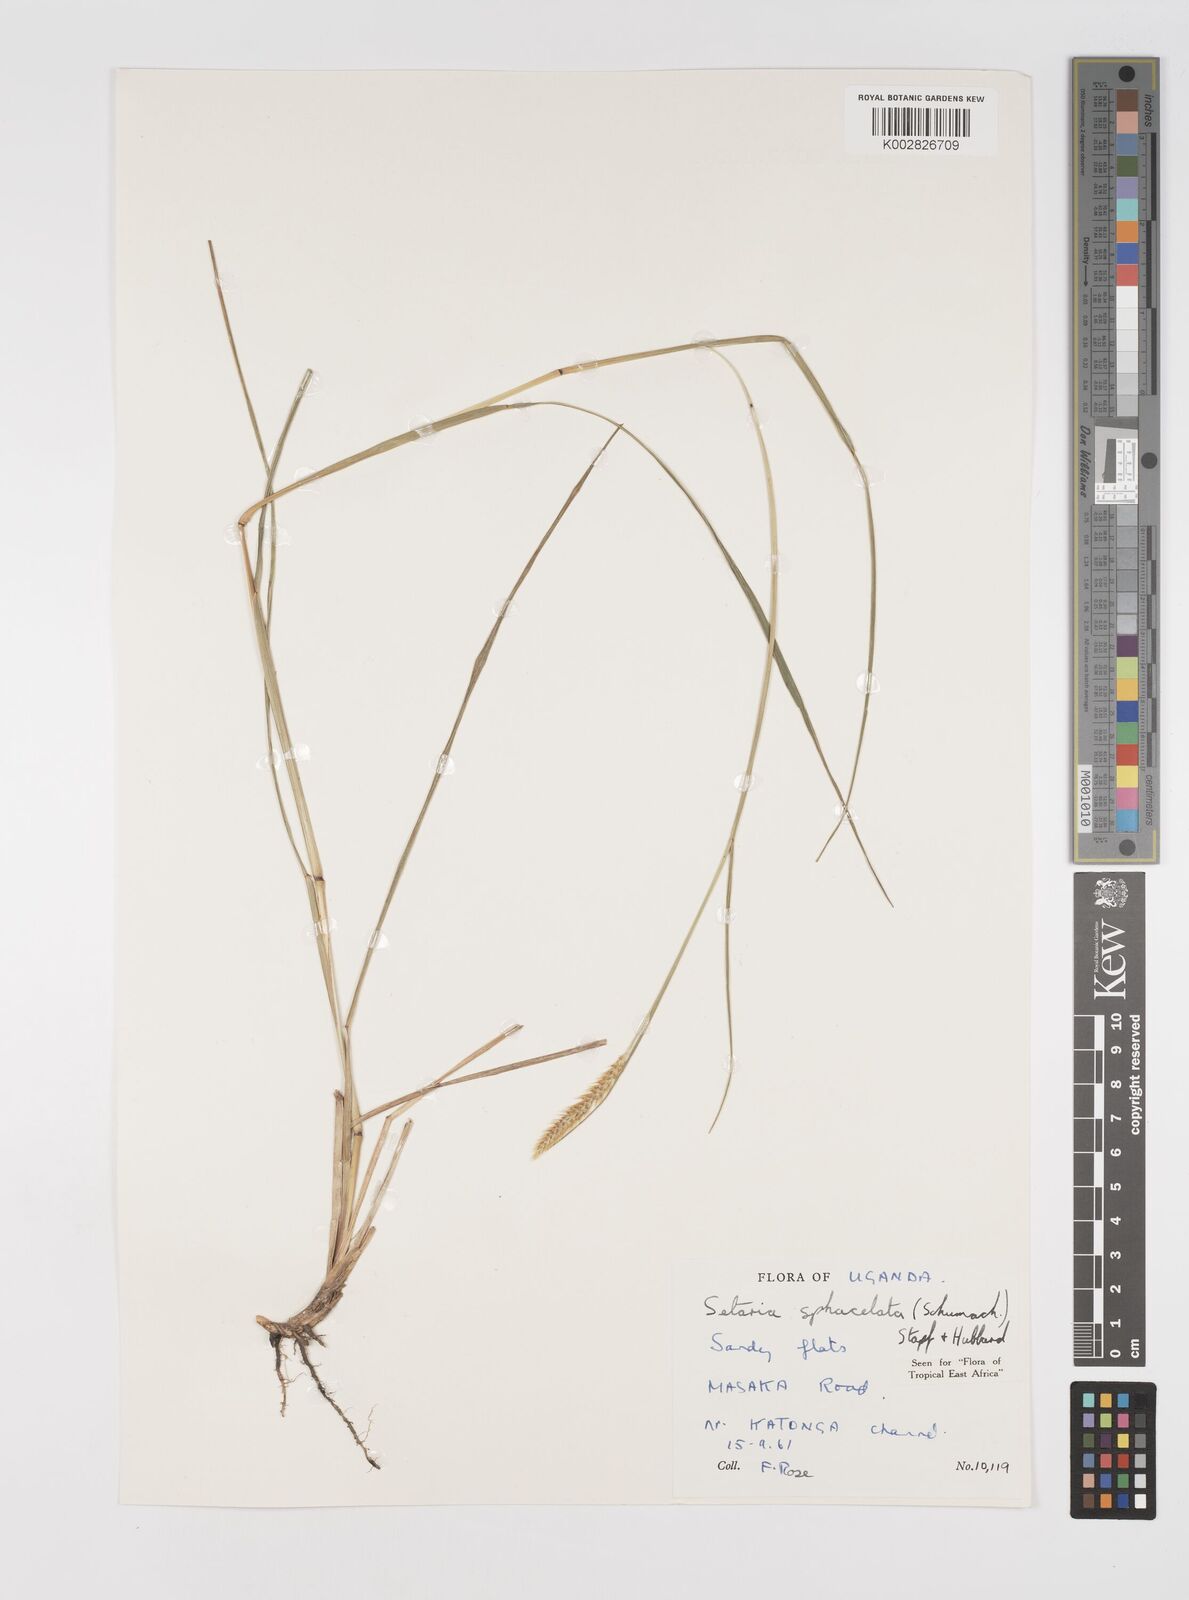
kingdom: Plantae
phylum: Tracheophyta
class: Liliopsida
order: Poales
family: Poaceae
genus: Setaria
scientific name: Setaria sphacelata
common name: African bristlegrass
